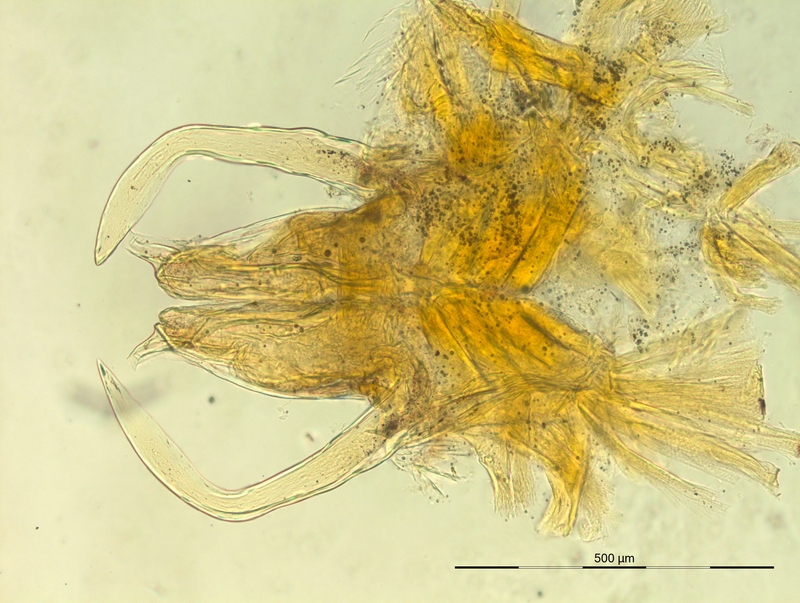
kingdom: Animalia
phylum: Arthropoda
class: Diplopoda
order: Chordeumatida
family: Craspedosomatidae
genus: Iulogona
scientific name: Iulogona tirolense
